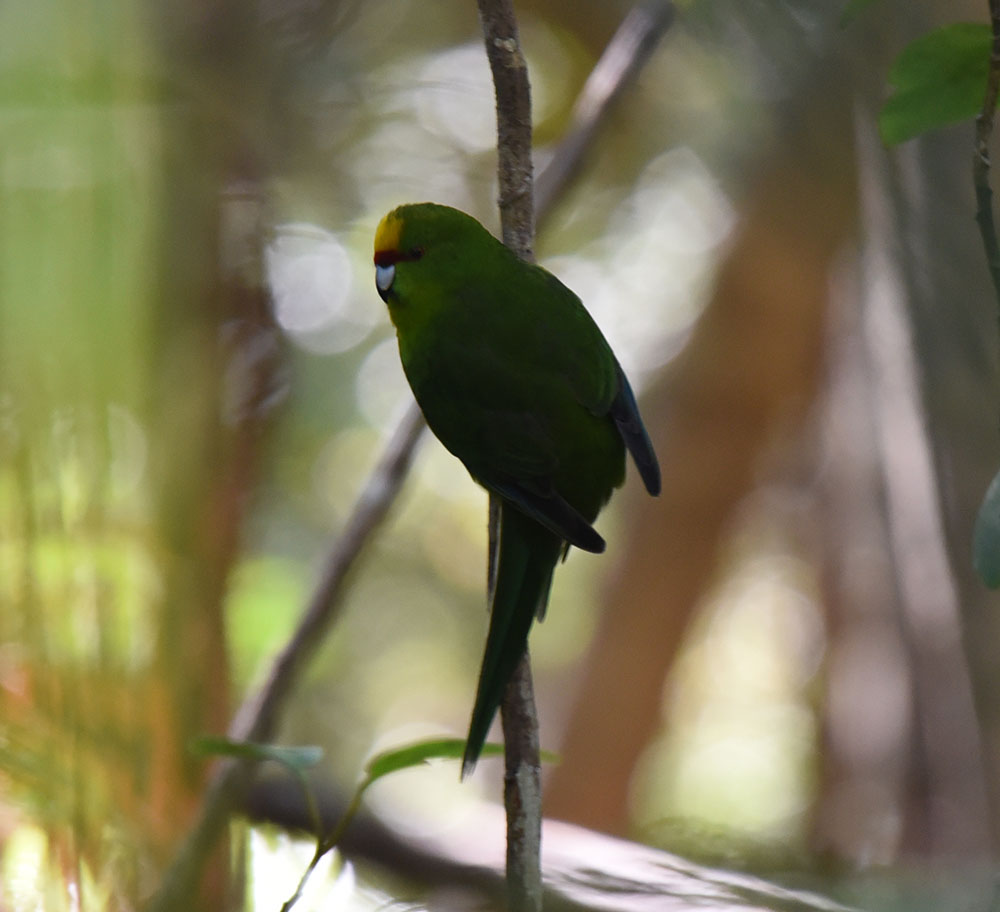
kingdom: Animalia
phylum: Chordata
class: Aves
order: Passeriformes
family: Acanthizidae
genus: Mohoua
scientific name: Mohoua ochrocephala
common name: Yellowhead
